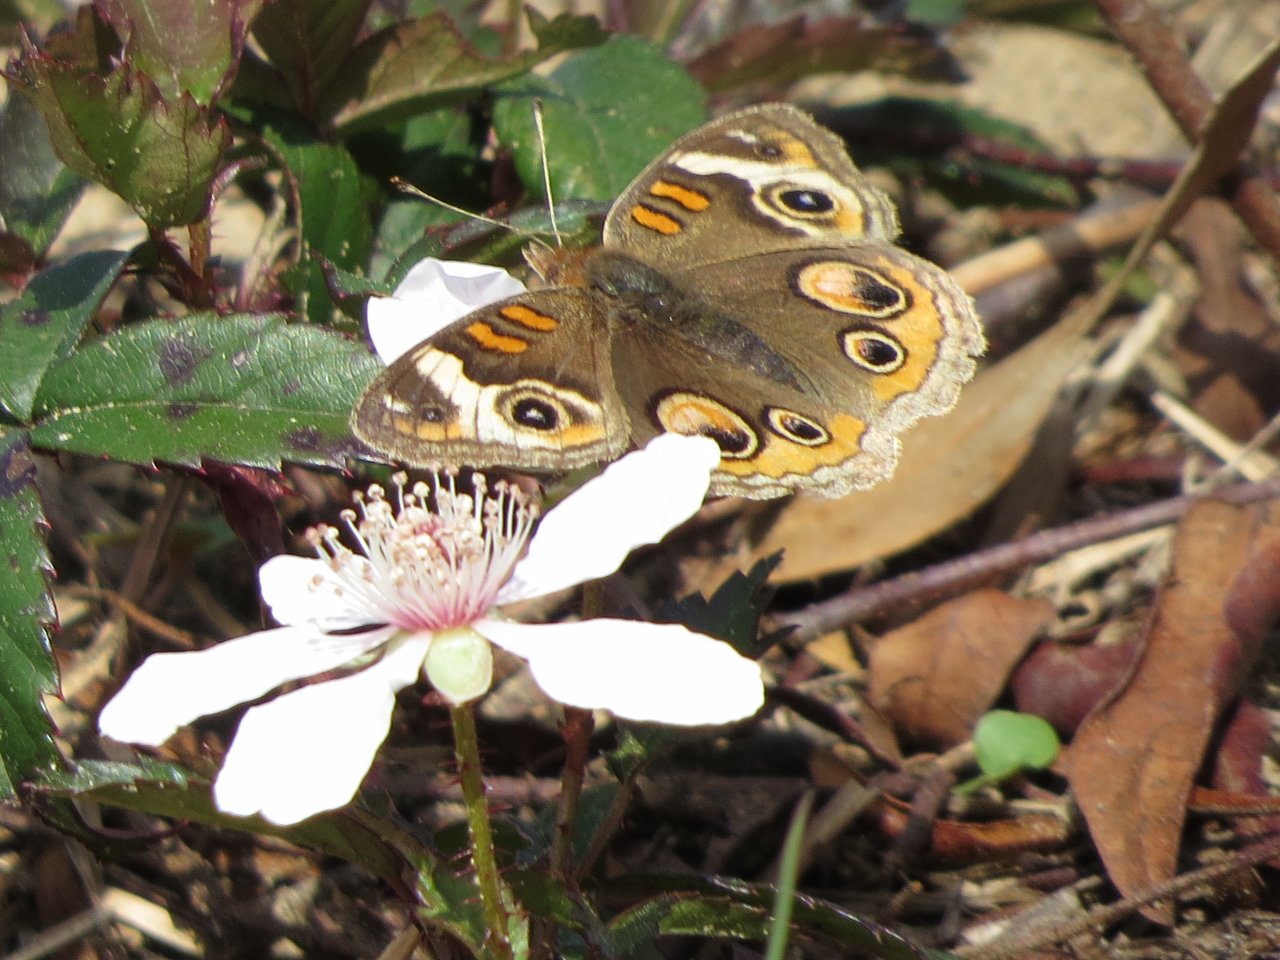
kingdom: Animalia
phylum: Arthropoda
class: Insecta
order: Lepidoptera
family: Nymphalidae
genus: Junonia
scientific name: Junonia coenia
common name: Common Buckeye
